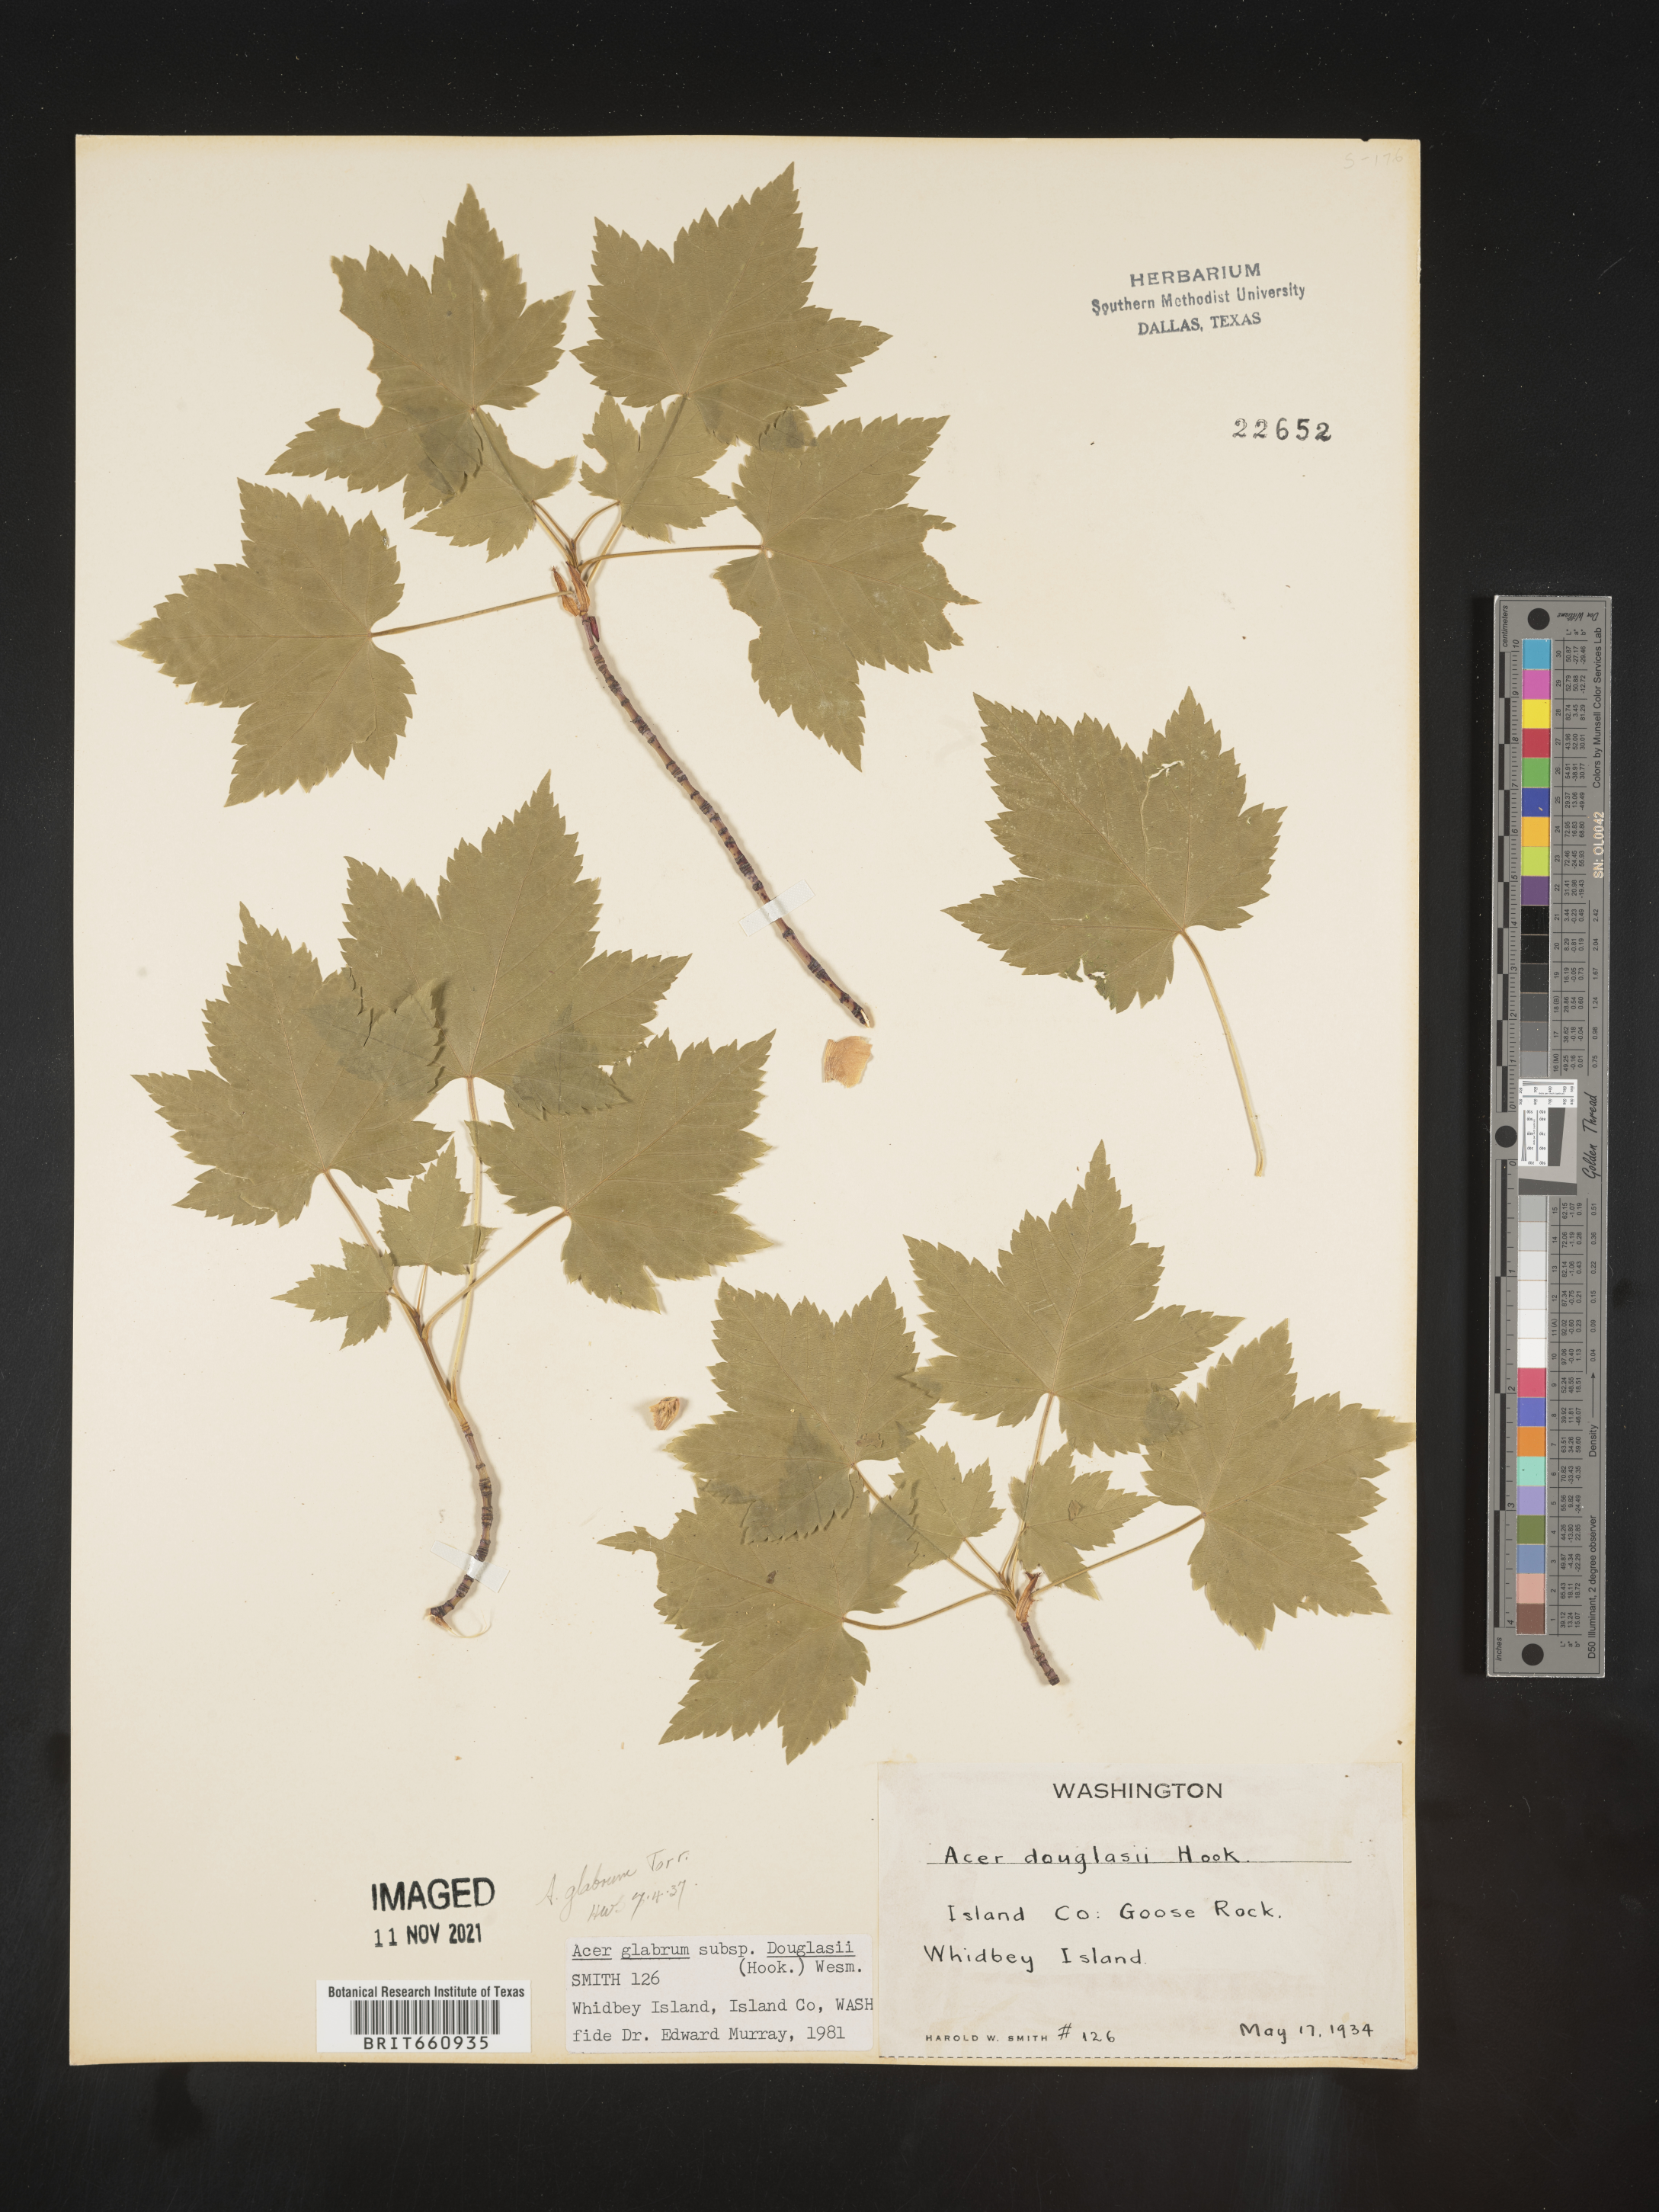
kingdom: Plantae
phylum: Tracheophyta
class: Magnoliopsida
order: Sapindales
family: Sapindaceae
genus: Acer
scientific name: Acer glabrum
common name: Rocky mountain maple
